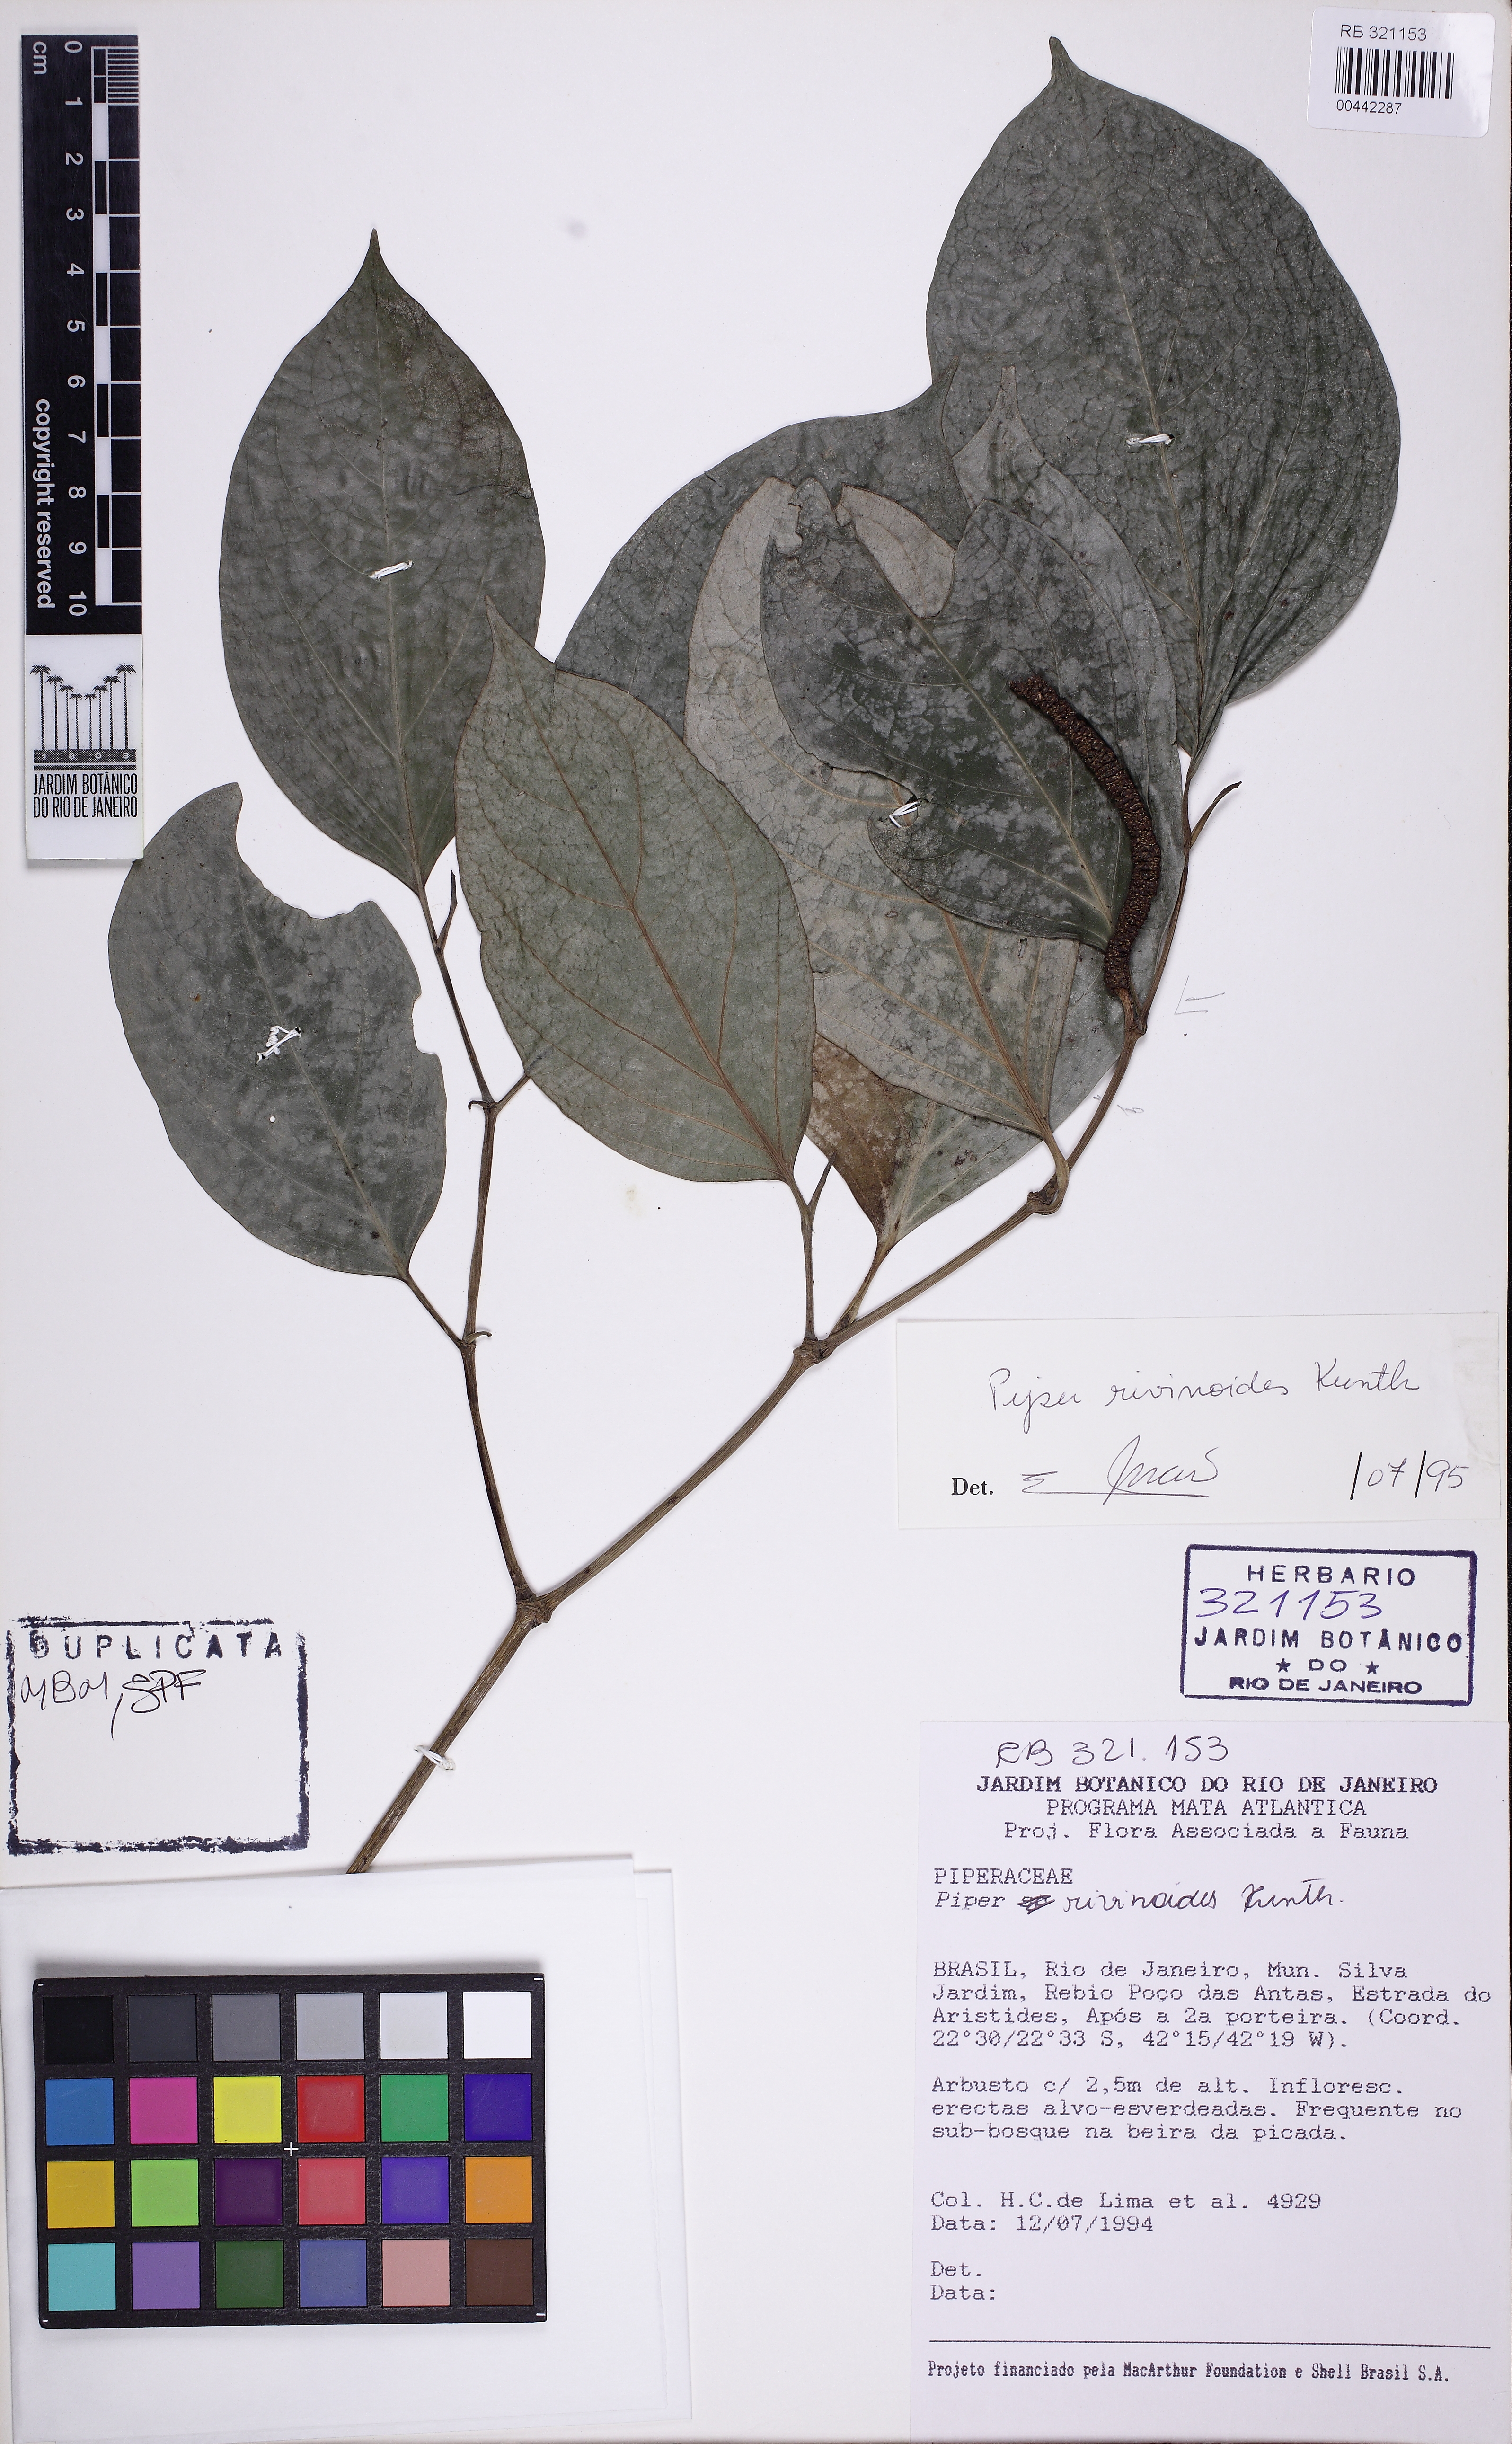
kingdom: Plantae
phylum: Tracheophyta
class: Magnoliopsida
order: Piperales
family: Piperaceae
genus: Piper
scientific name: Piper rivinoides
